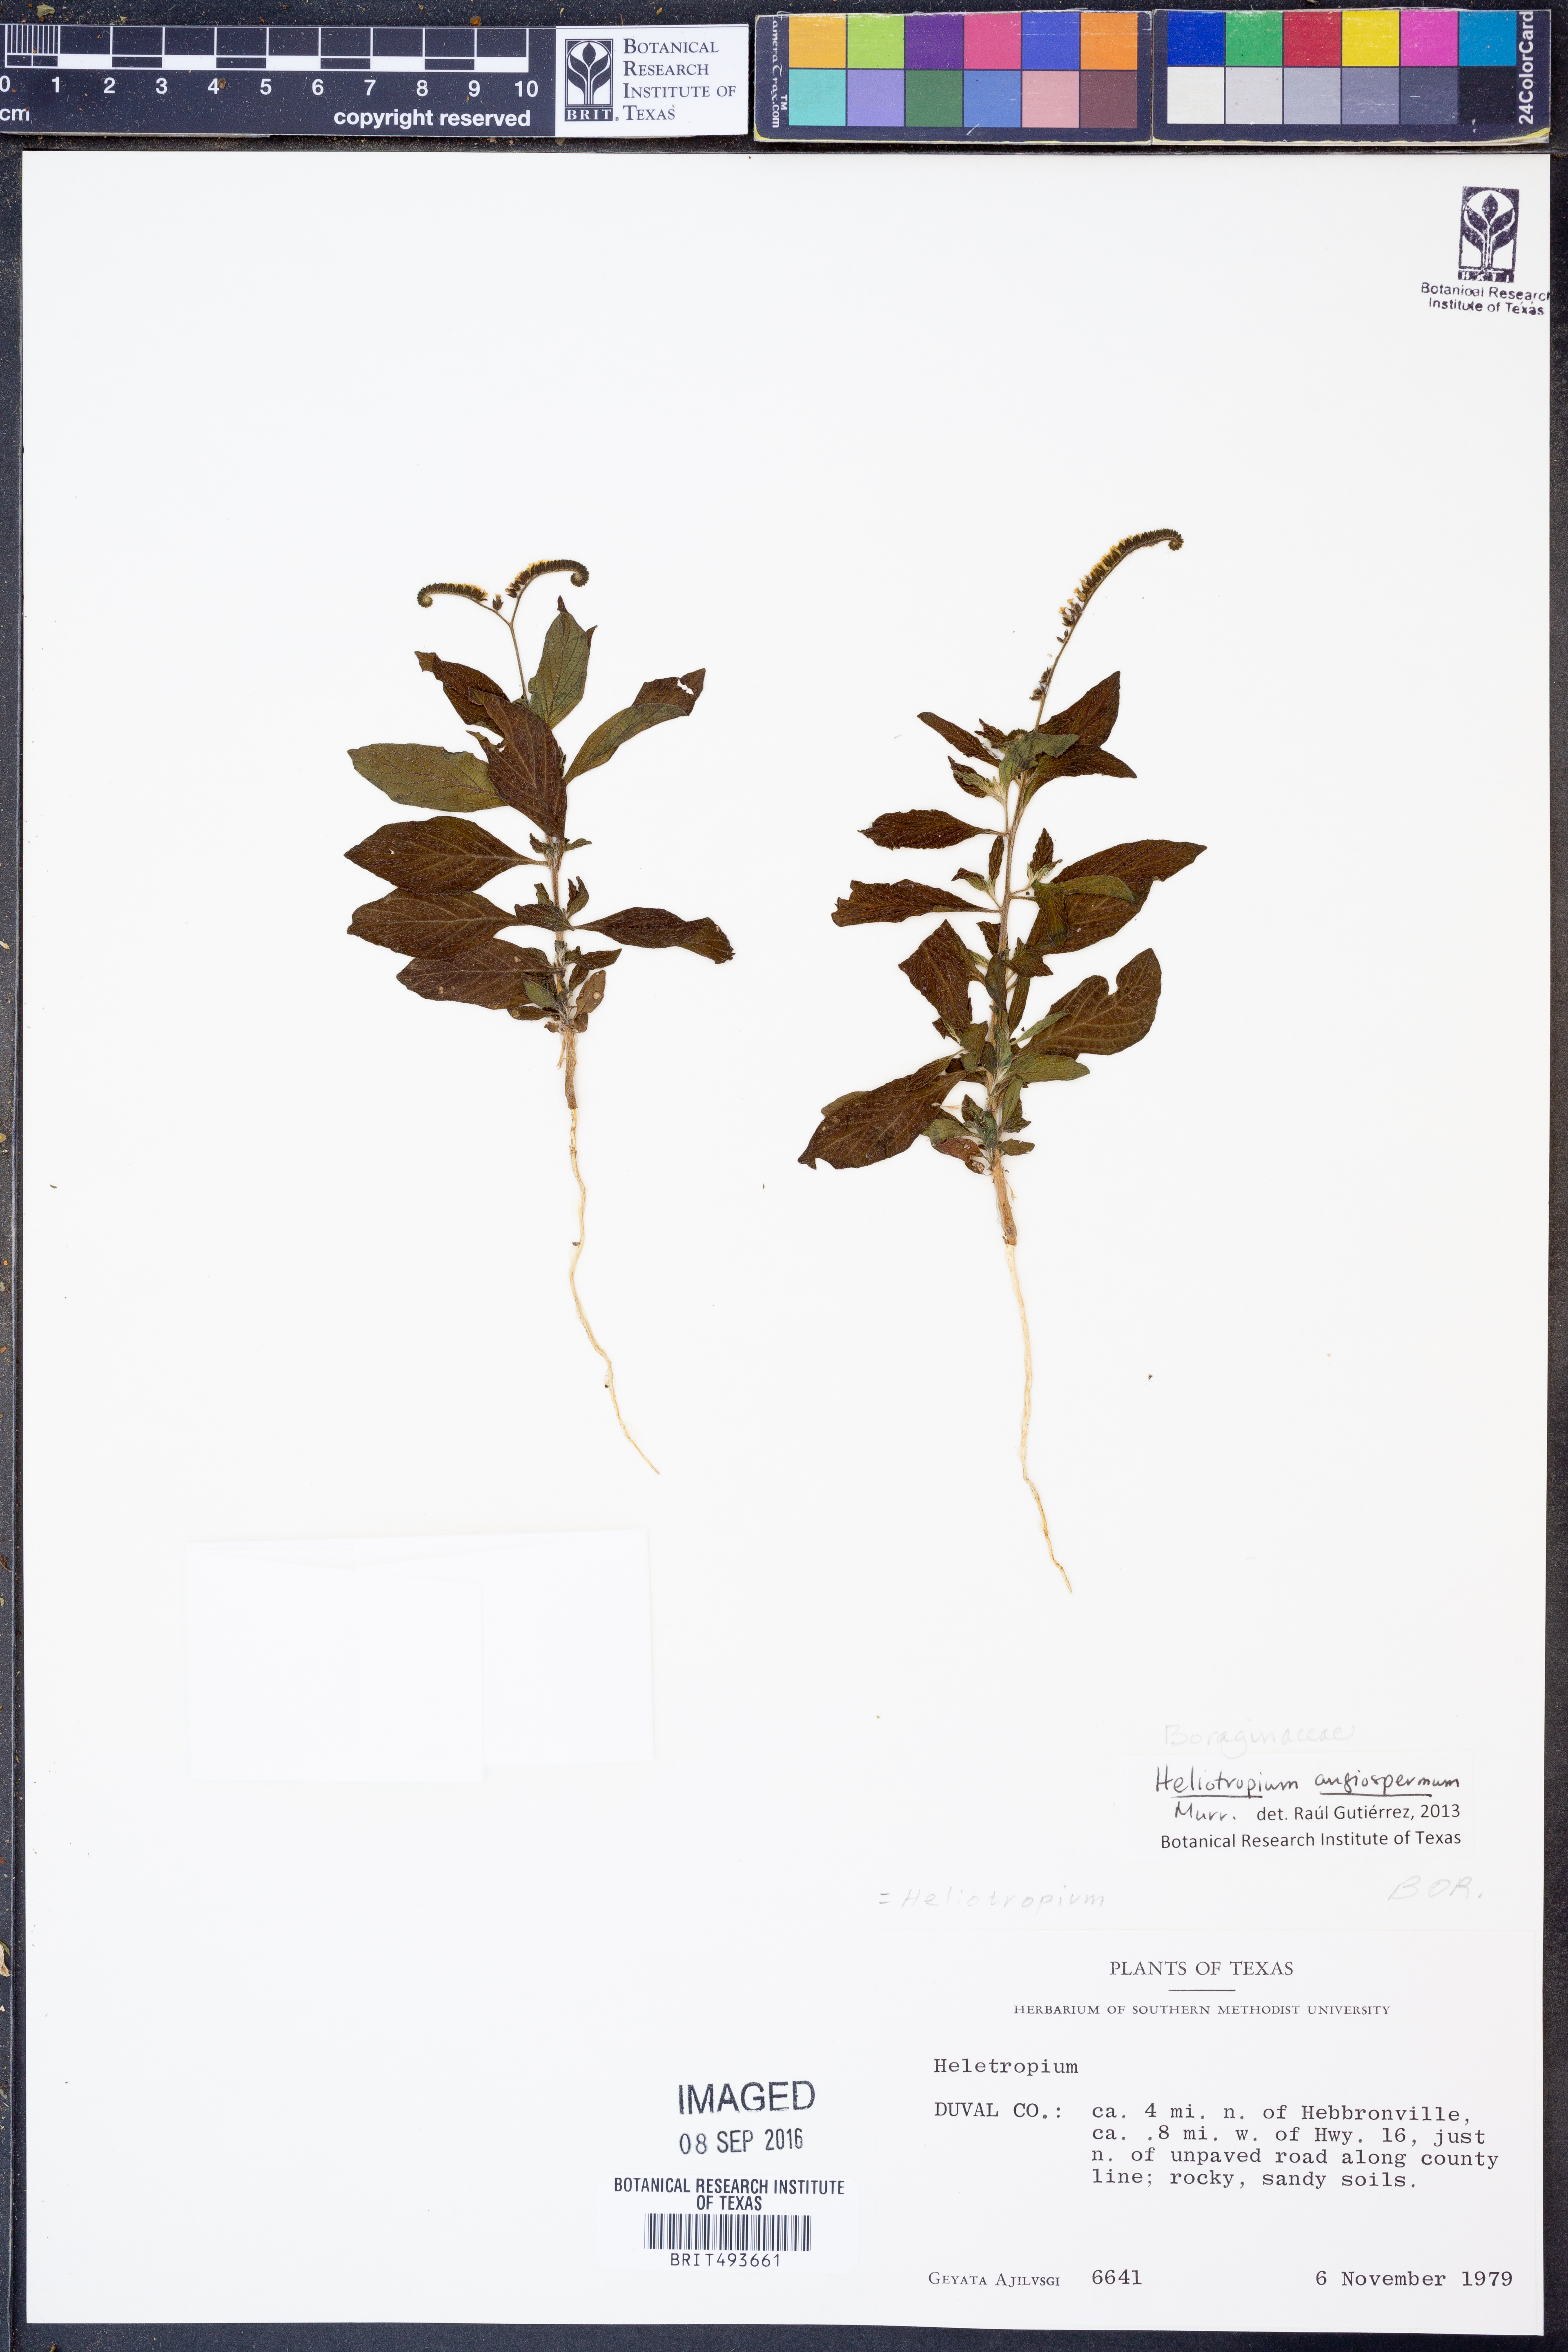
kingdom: Plantae
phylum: Tracheophyta
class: Magnoliopsida
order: Boraginales
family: Heliotropiaceae
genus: Heliotropium
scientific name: Heliotropium angiospermum
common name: Eye bright
